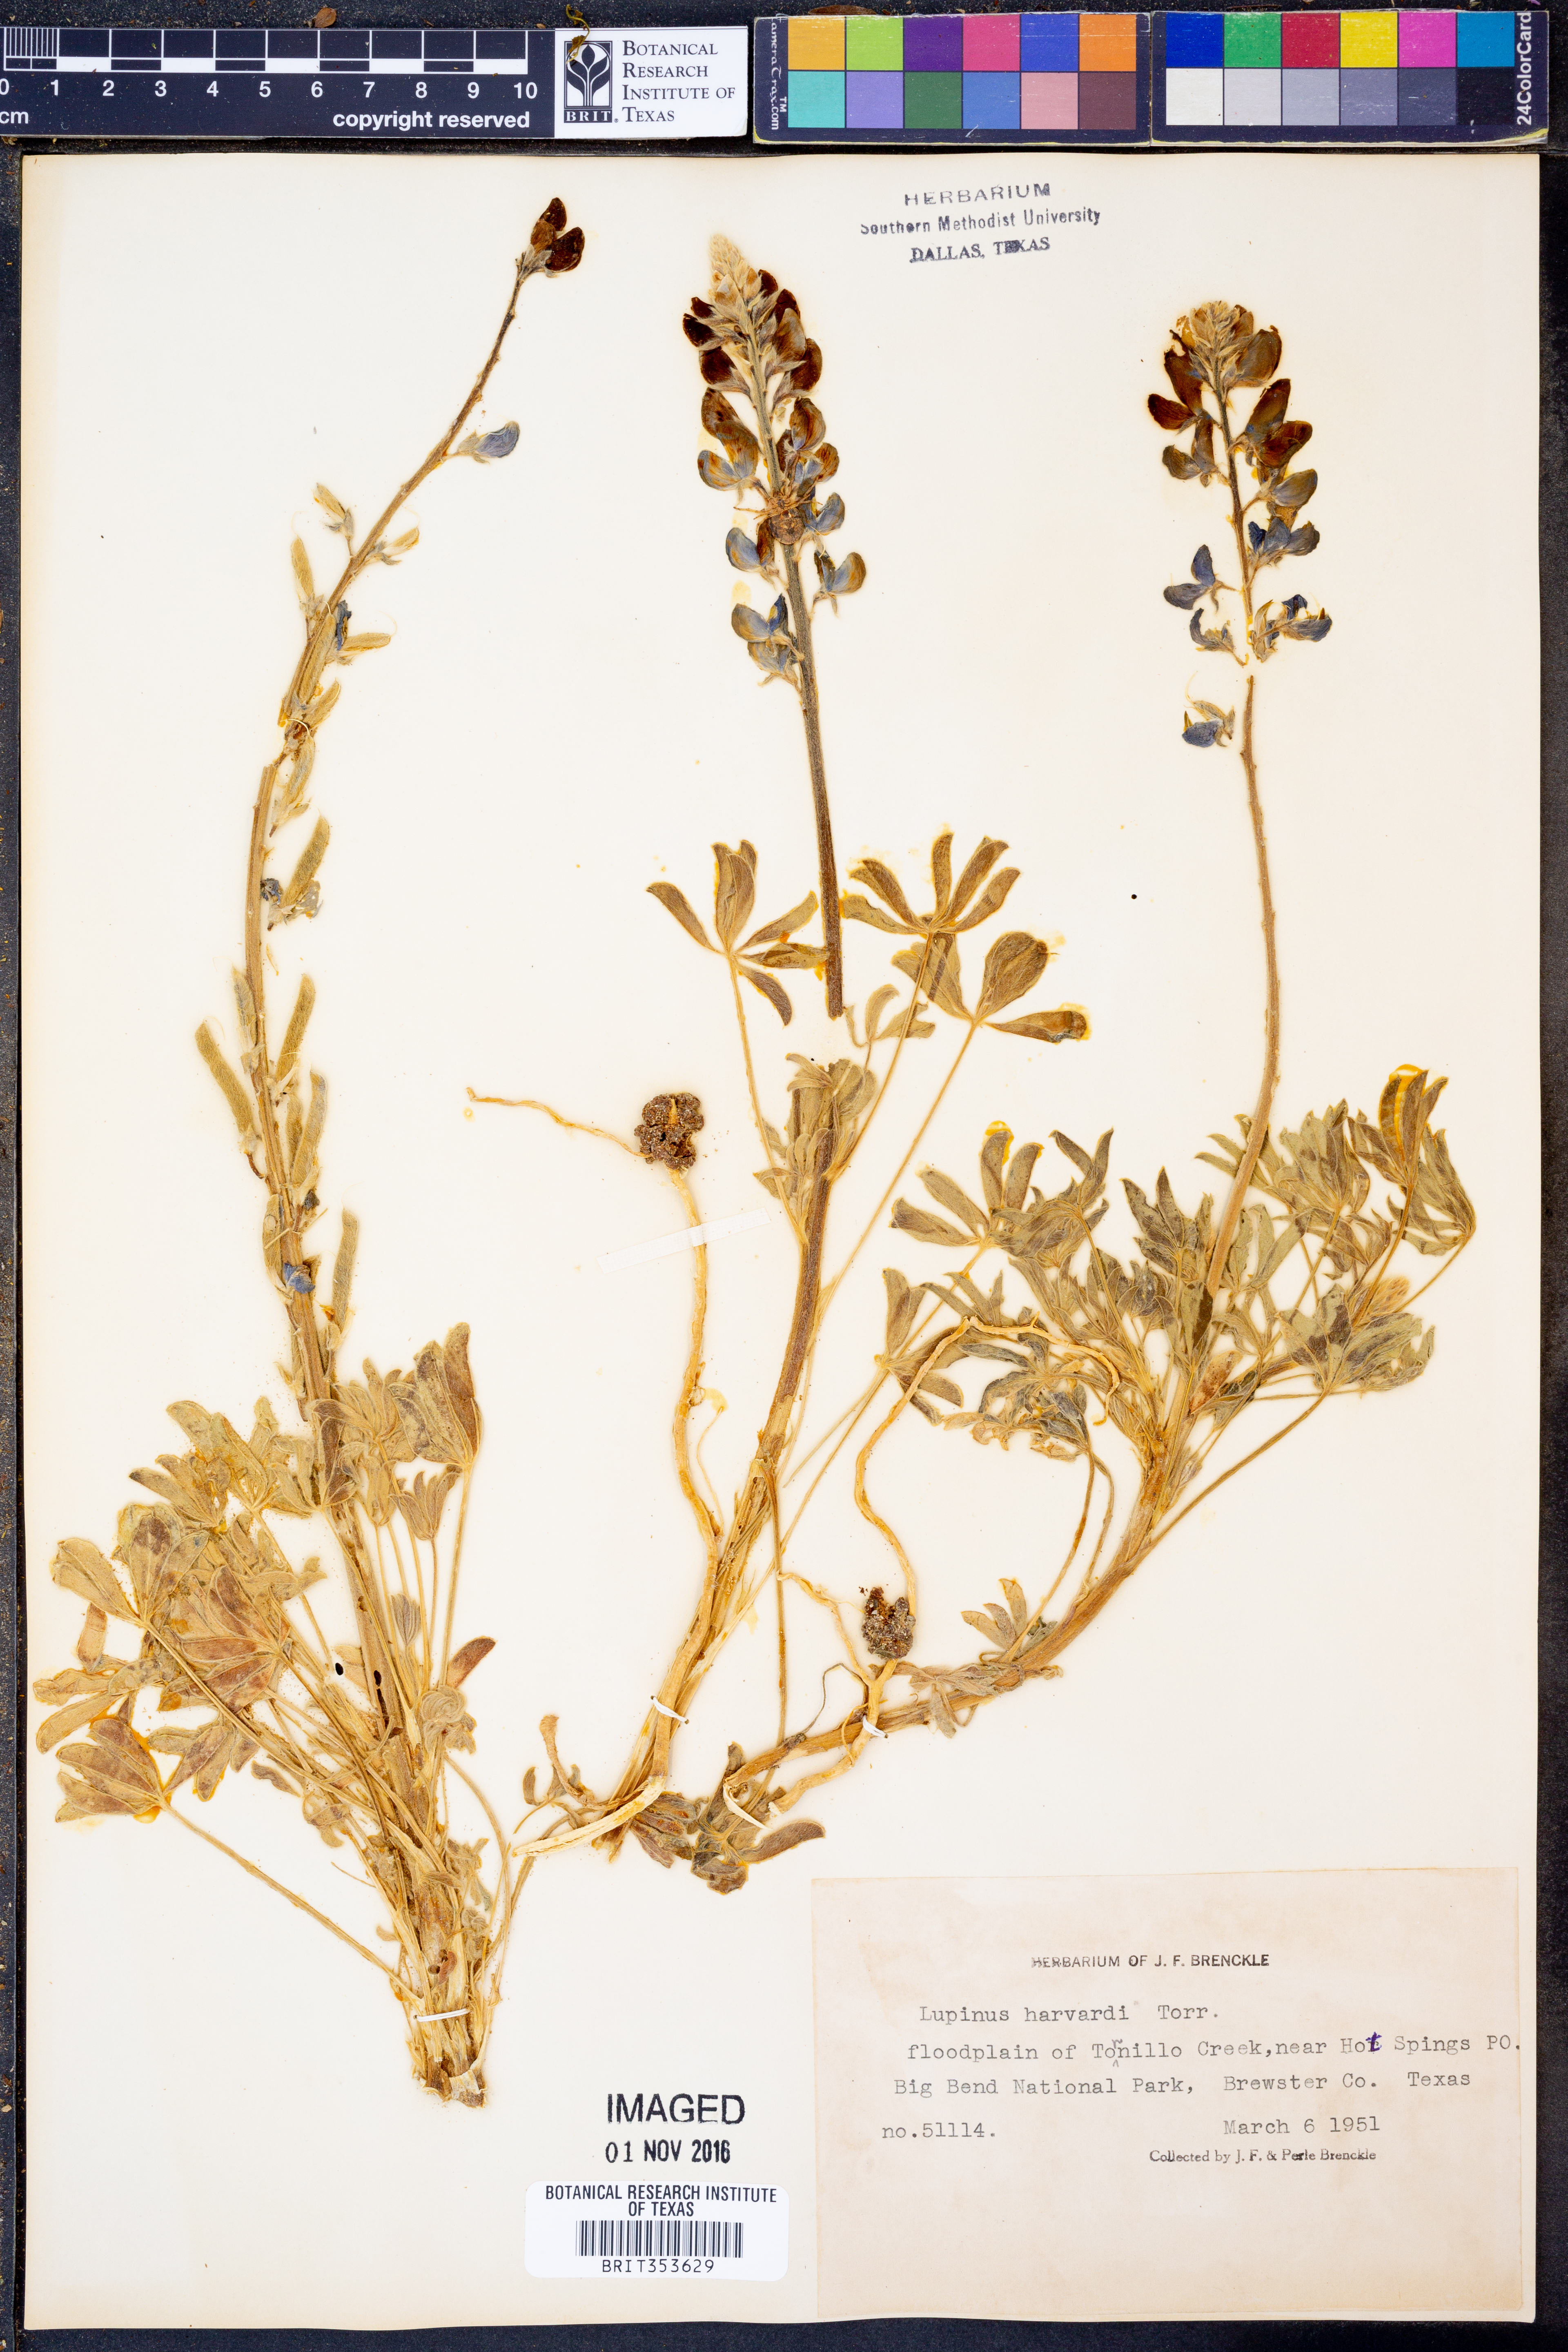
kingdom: Plantae
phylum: Tracheophyta
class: Magnoliopsida
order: Fabales
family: Fabaceae
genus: Lupinus
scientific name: Lupinus havardii
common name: Chisos bluebonnet
